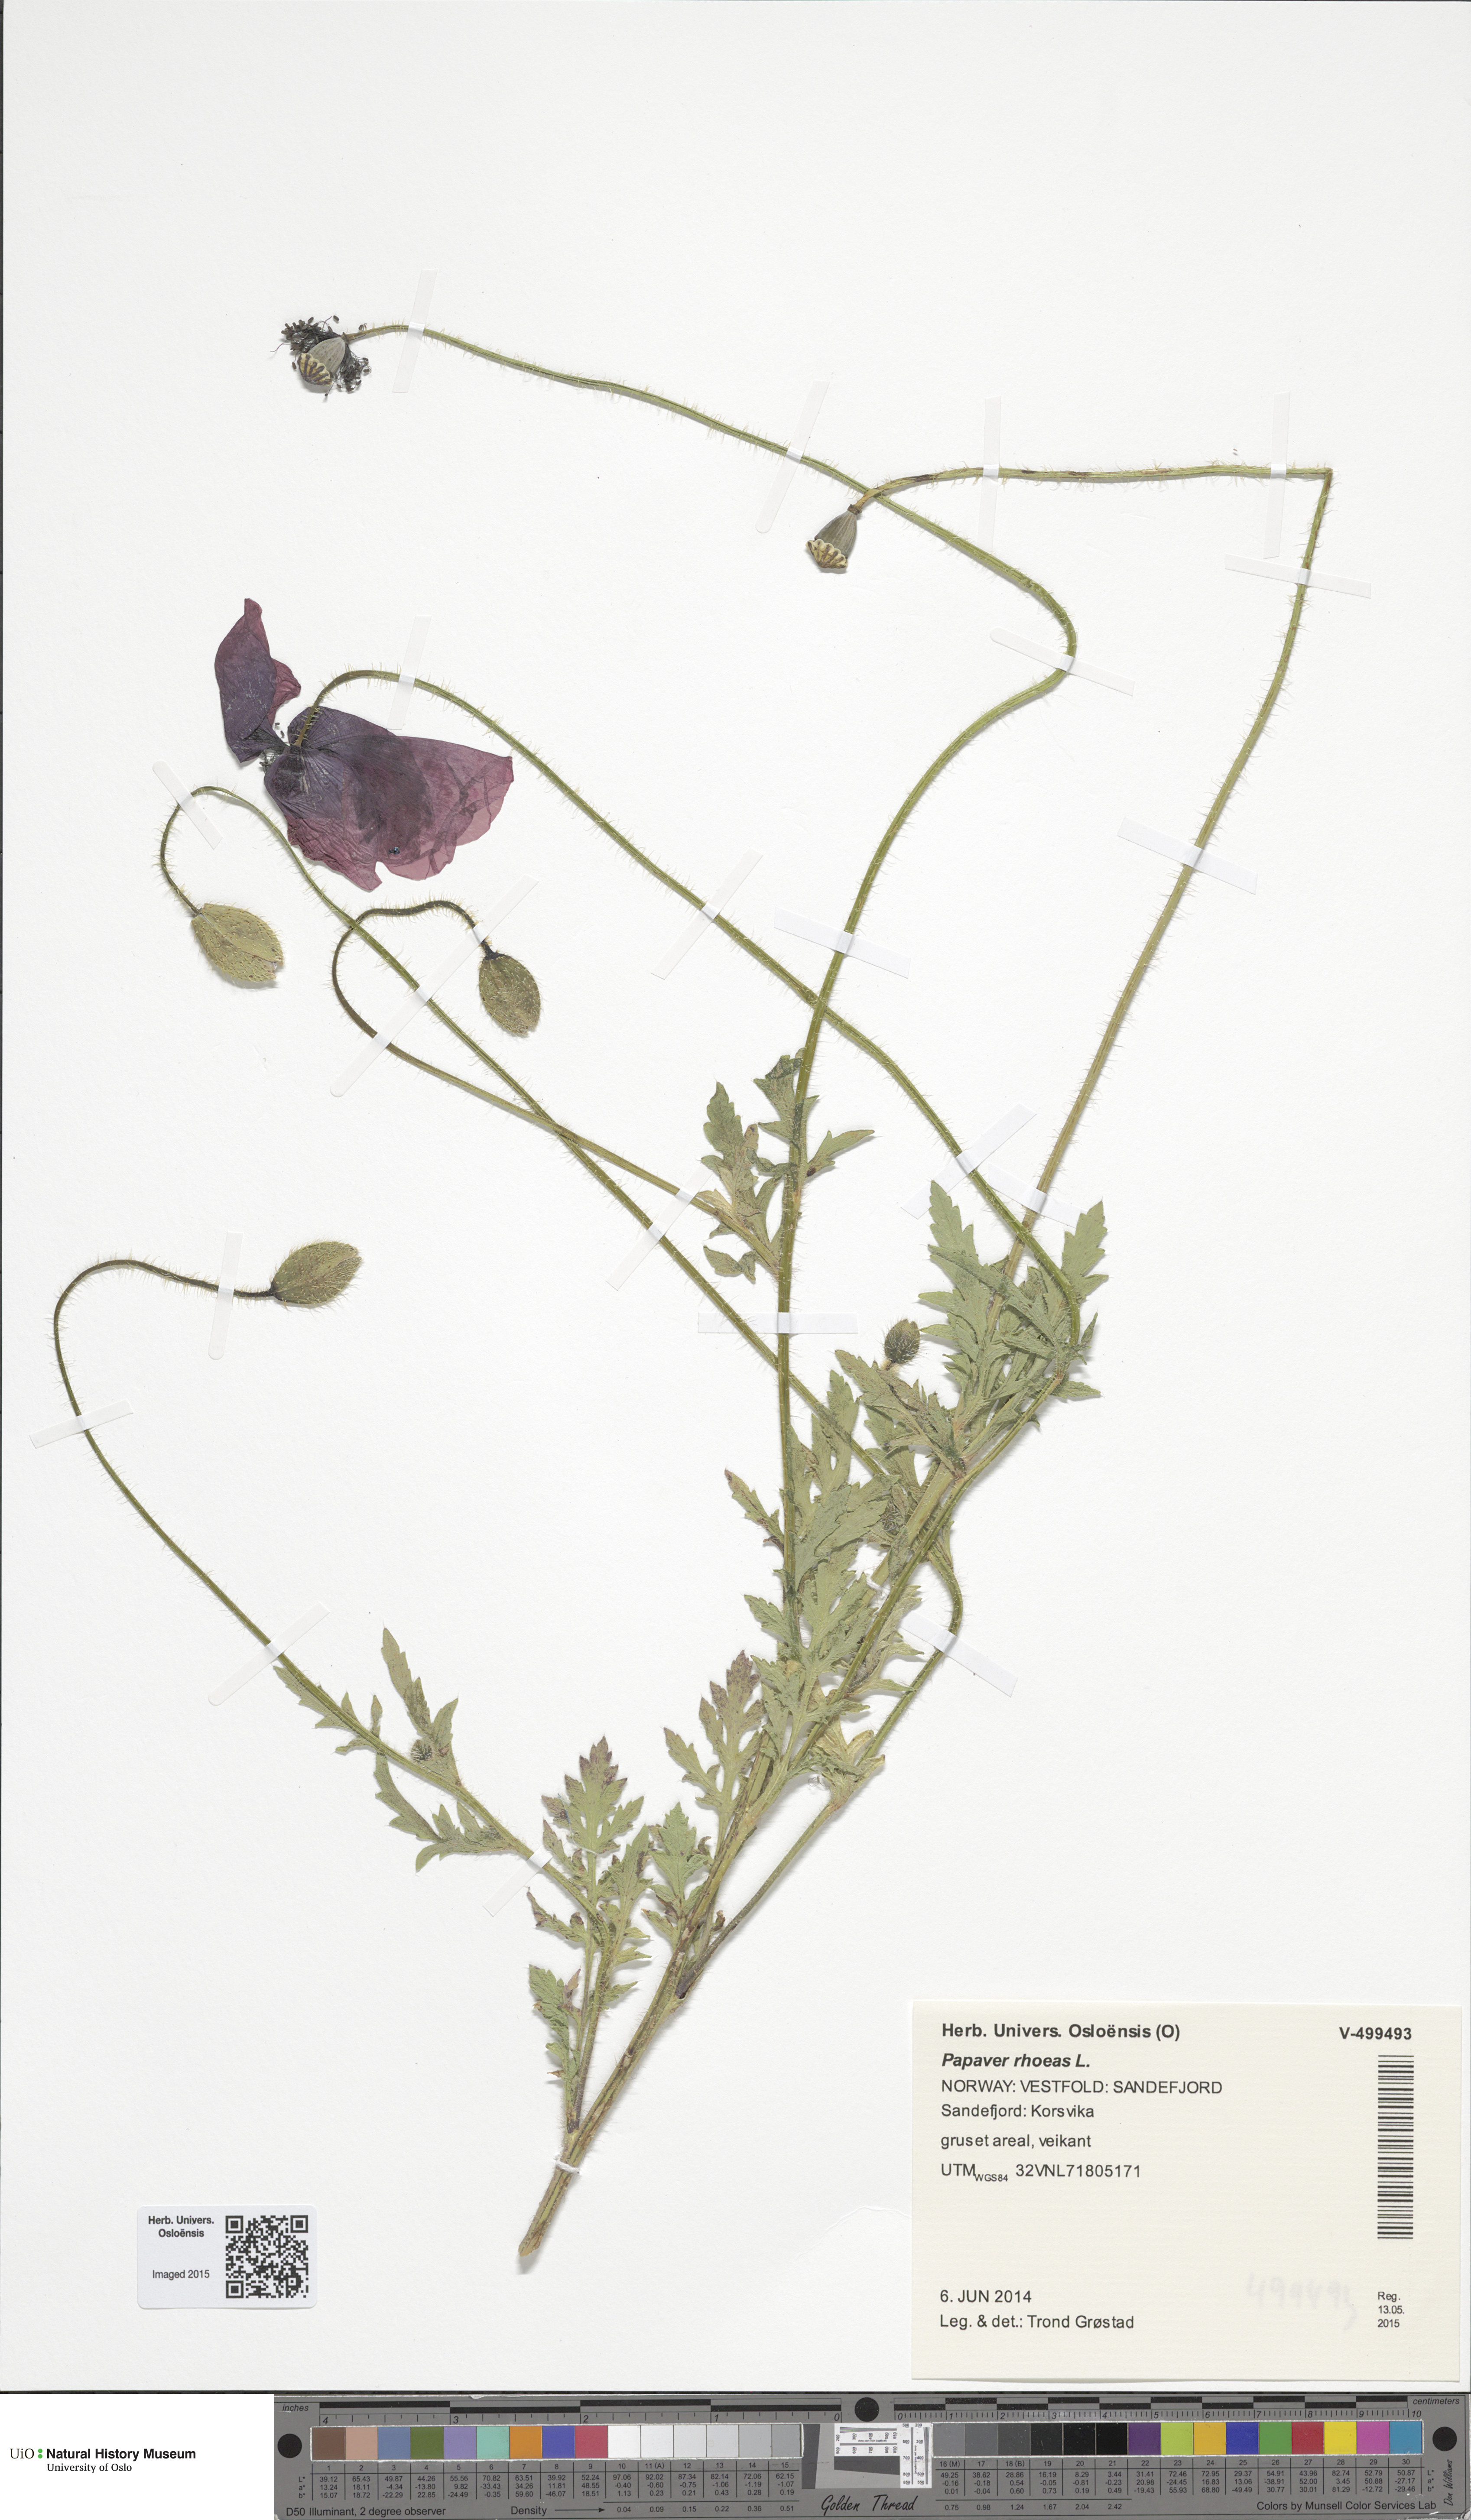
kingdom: Plantae
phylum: Tracheophyta
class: Magnoliopsida
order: Ranunculales
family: Papaveraceae
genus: Papaver
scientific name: Papaver rhoeas
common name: Corn poppy
